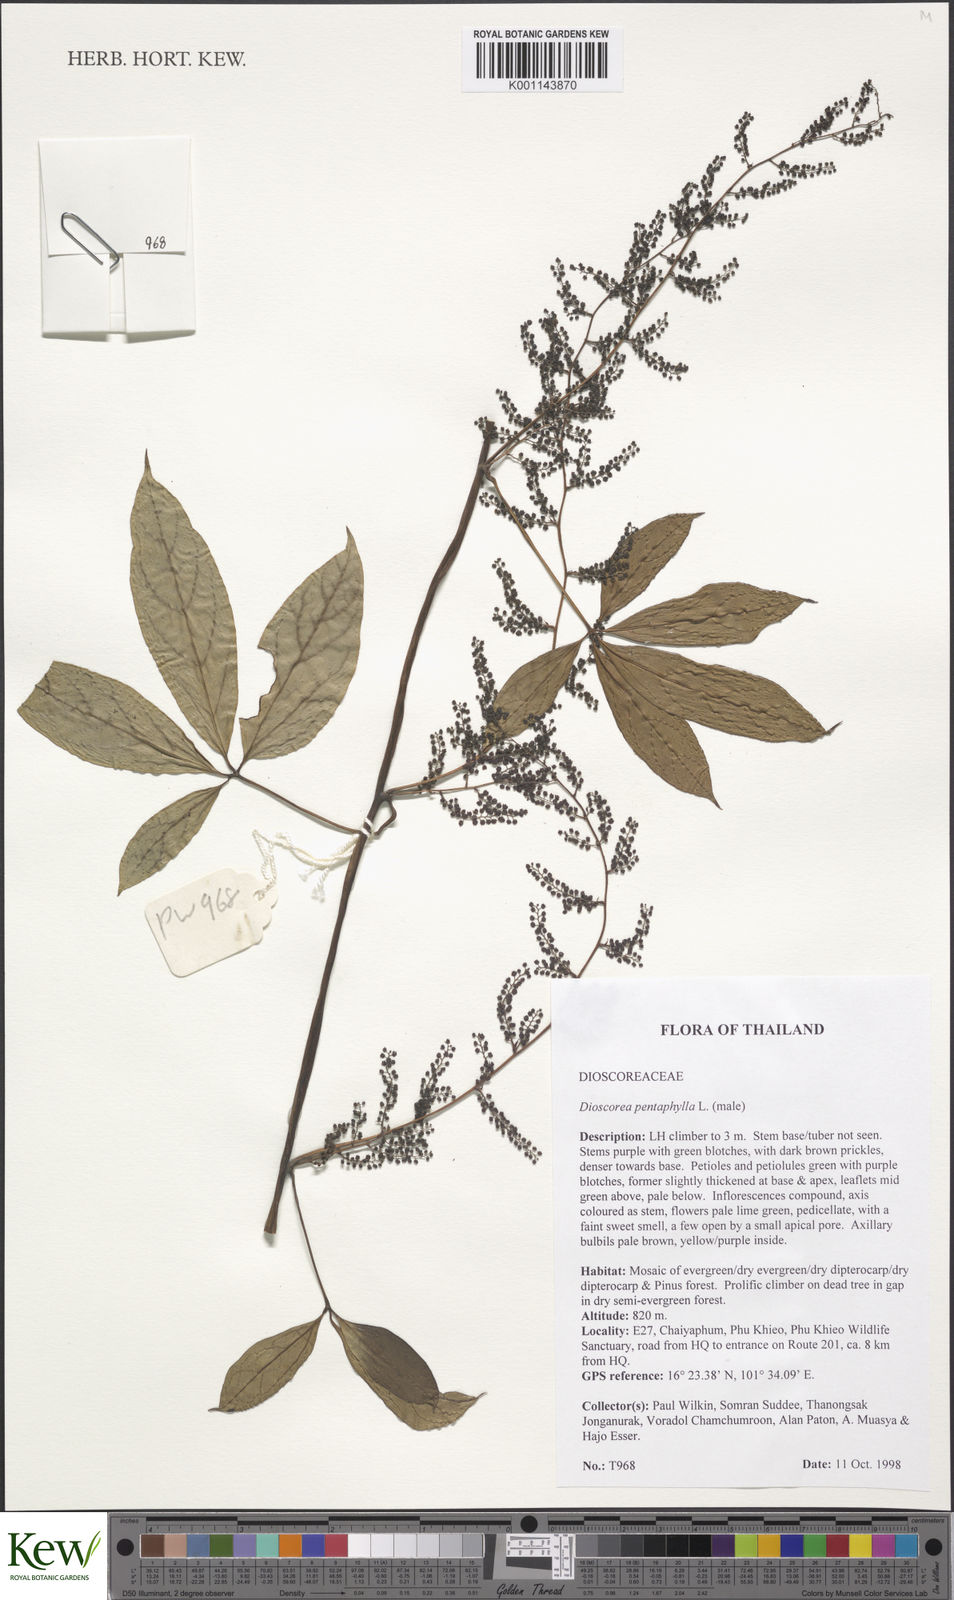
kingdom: Plantae
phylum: Tracheophyta
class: Liliopsida
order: Dioscoreales
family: Dioscoreaceae
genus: Dioscorea
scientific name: Dioscorea pentaphylla
